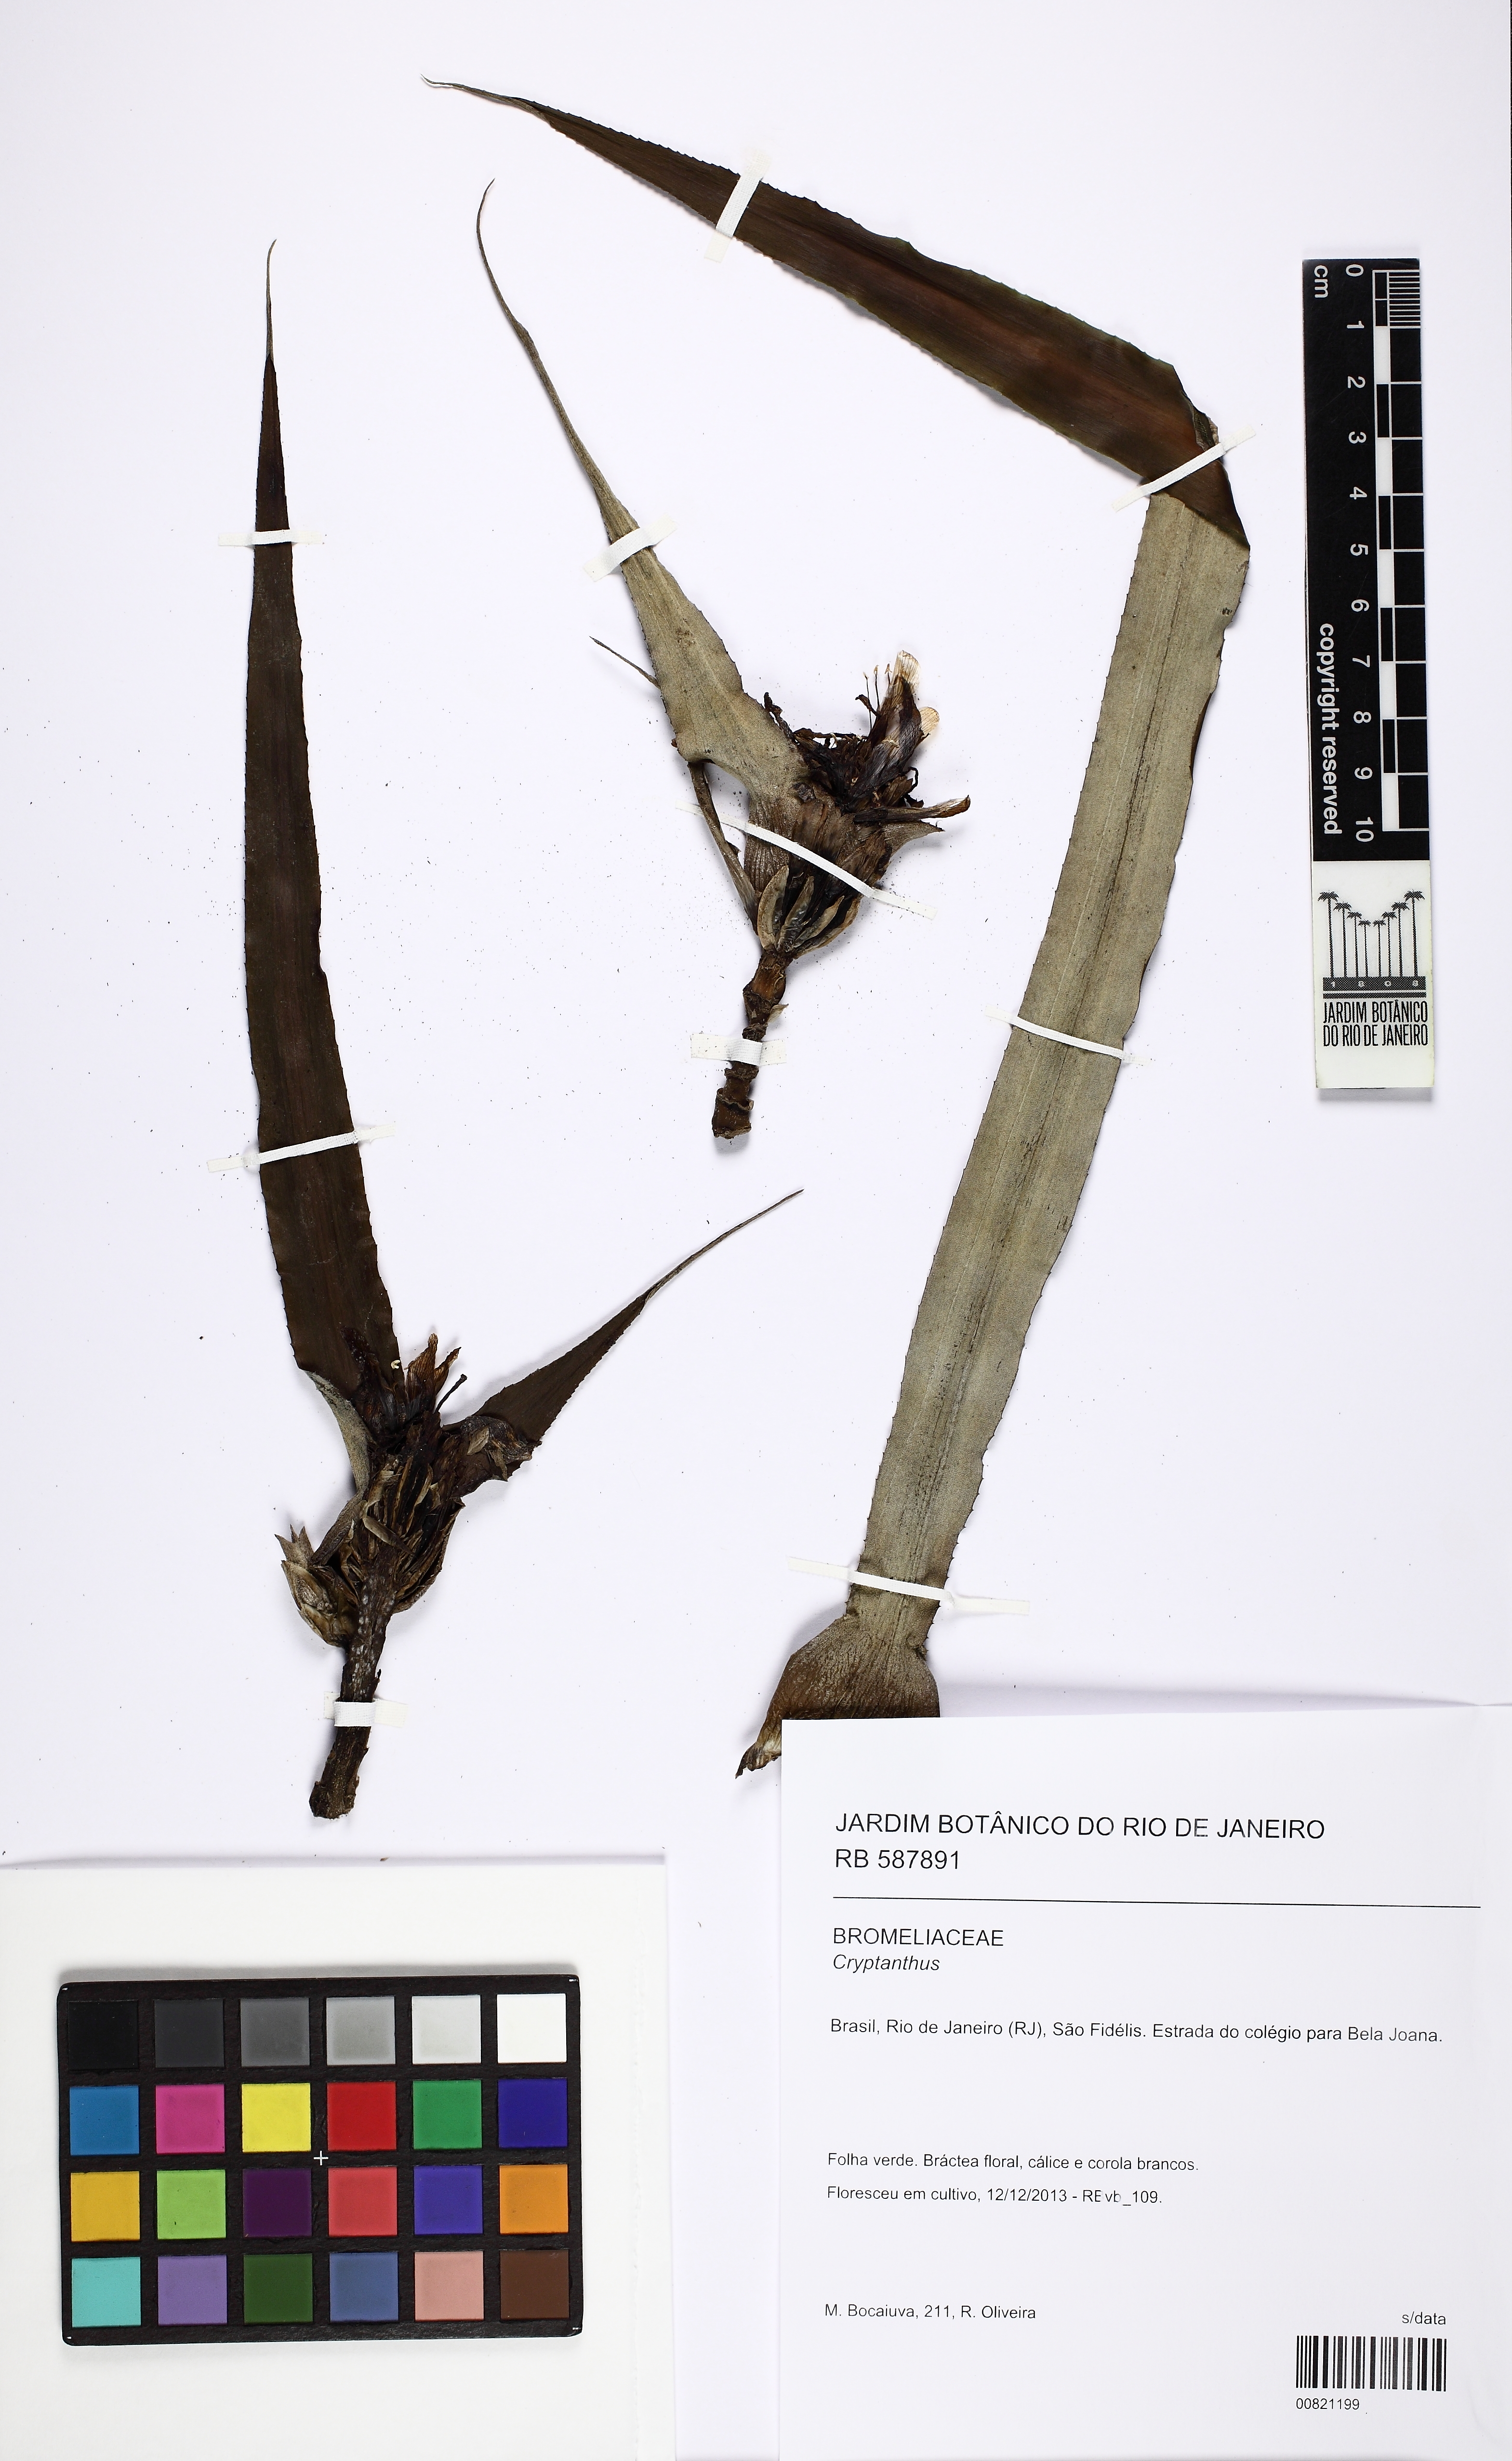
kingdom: Plantae
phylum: Tracheophyta
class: Liliopsida
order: Poales
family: Bromeliaceae
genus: Cryptanthus
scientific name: Cryptanthus
